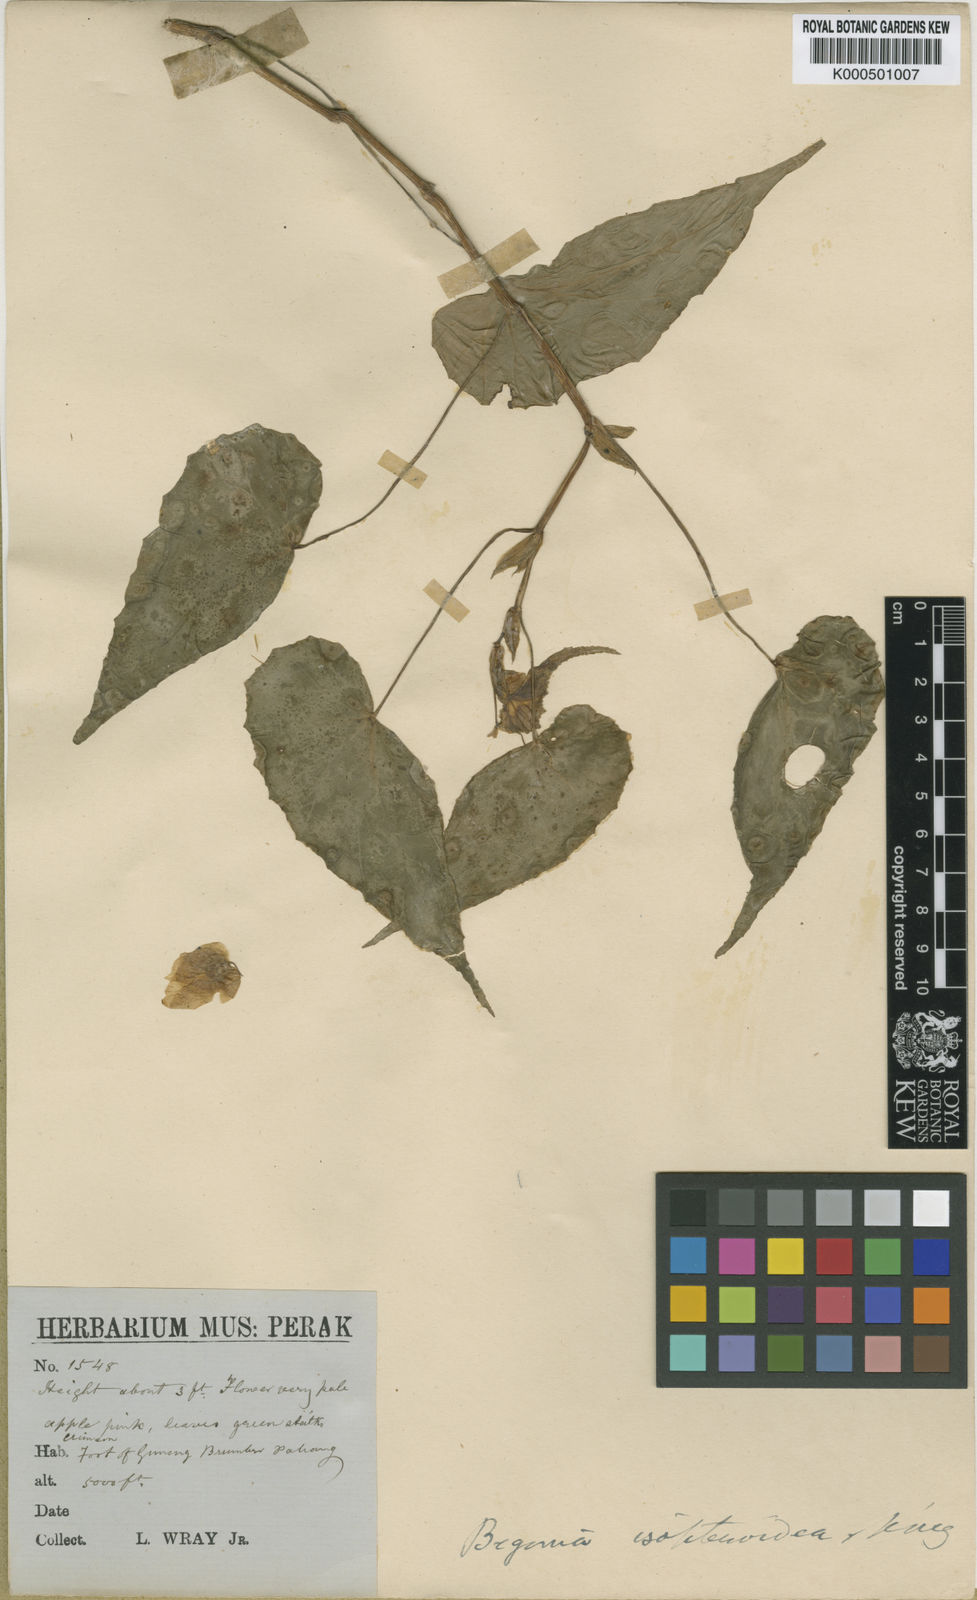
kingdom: Plantae
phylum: Tracheophyta
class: Magnoliopsida
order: Cucurbitales
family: Begoniaceae
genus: Begonia
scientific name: Begonia isopteroidea
